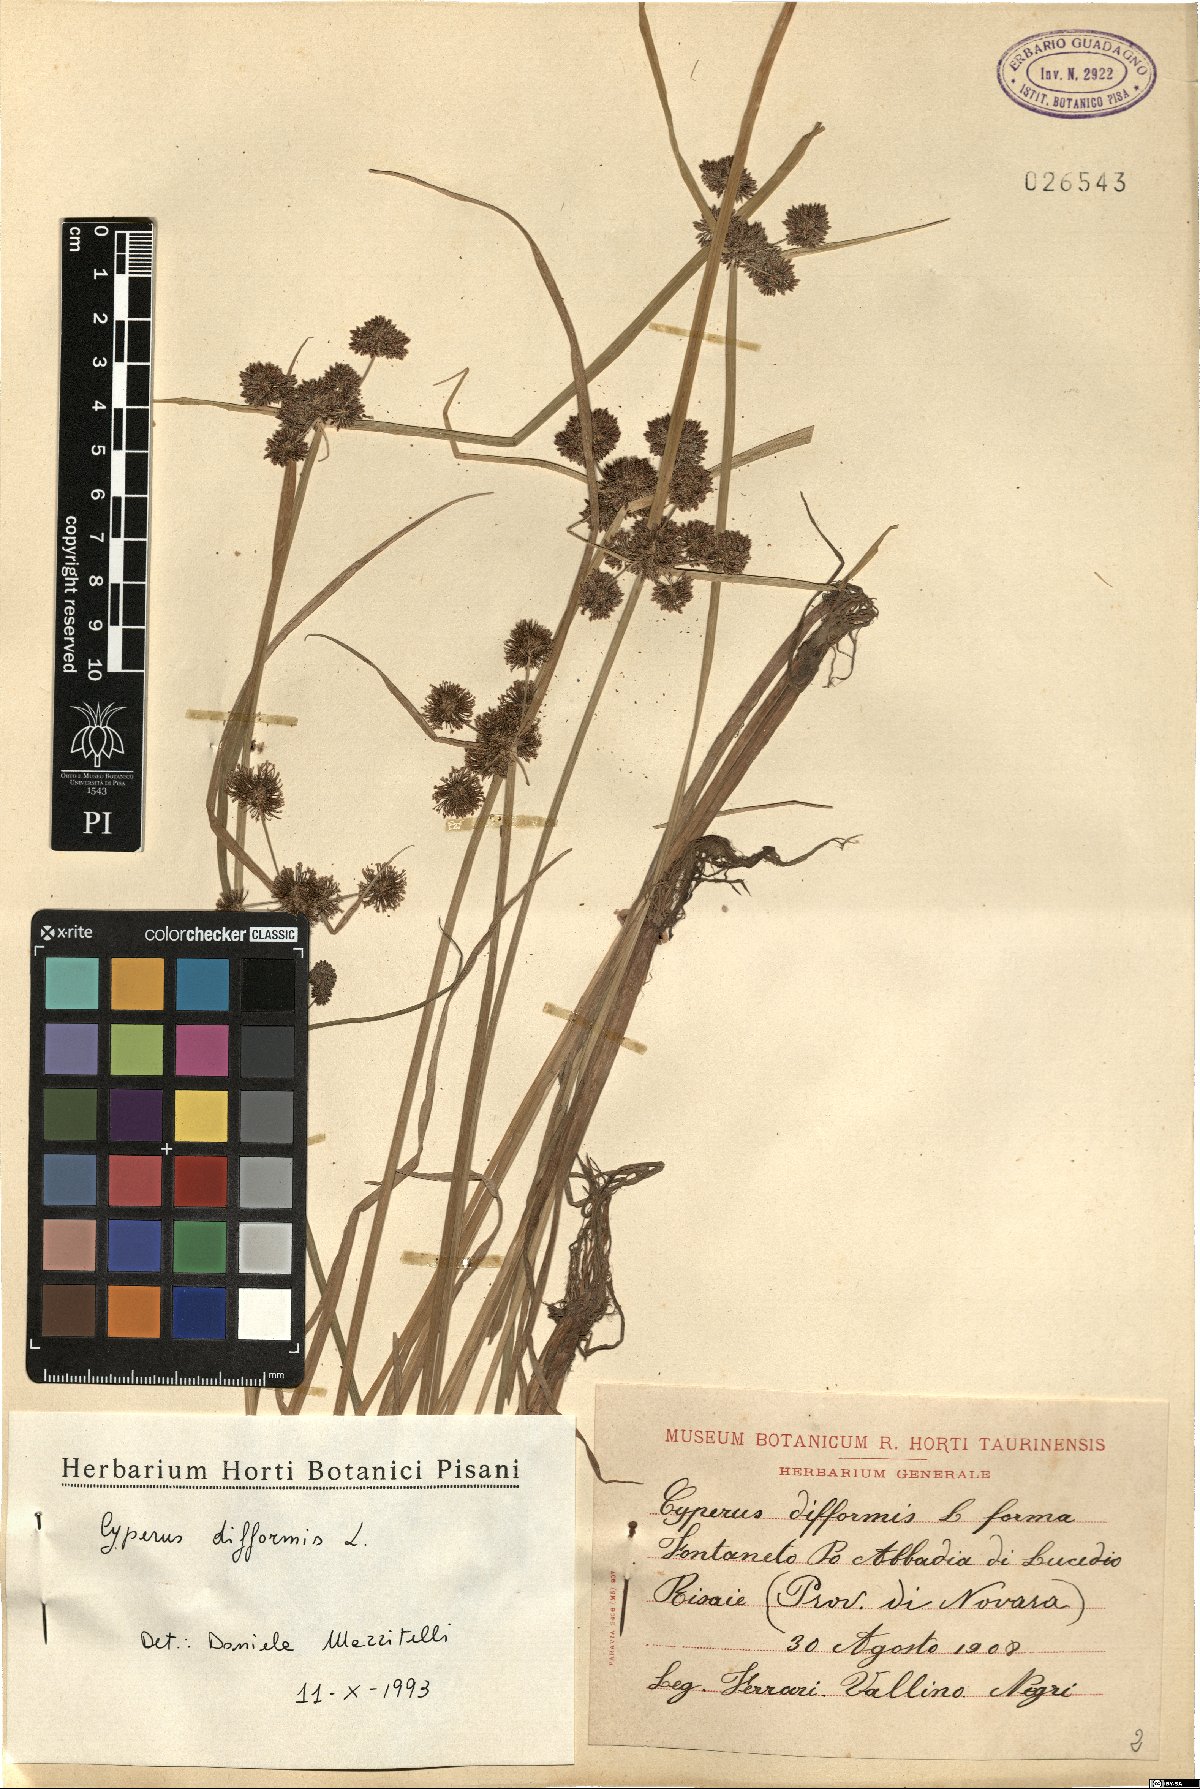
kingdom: Plantae
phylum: Tracheophyta
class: Liliopsida
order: Poales
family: Cyperaceae
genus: Cyperus
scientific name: Cyperus difformis
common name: Variable flatsedge
